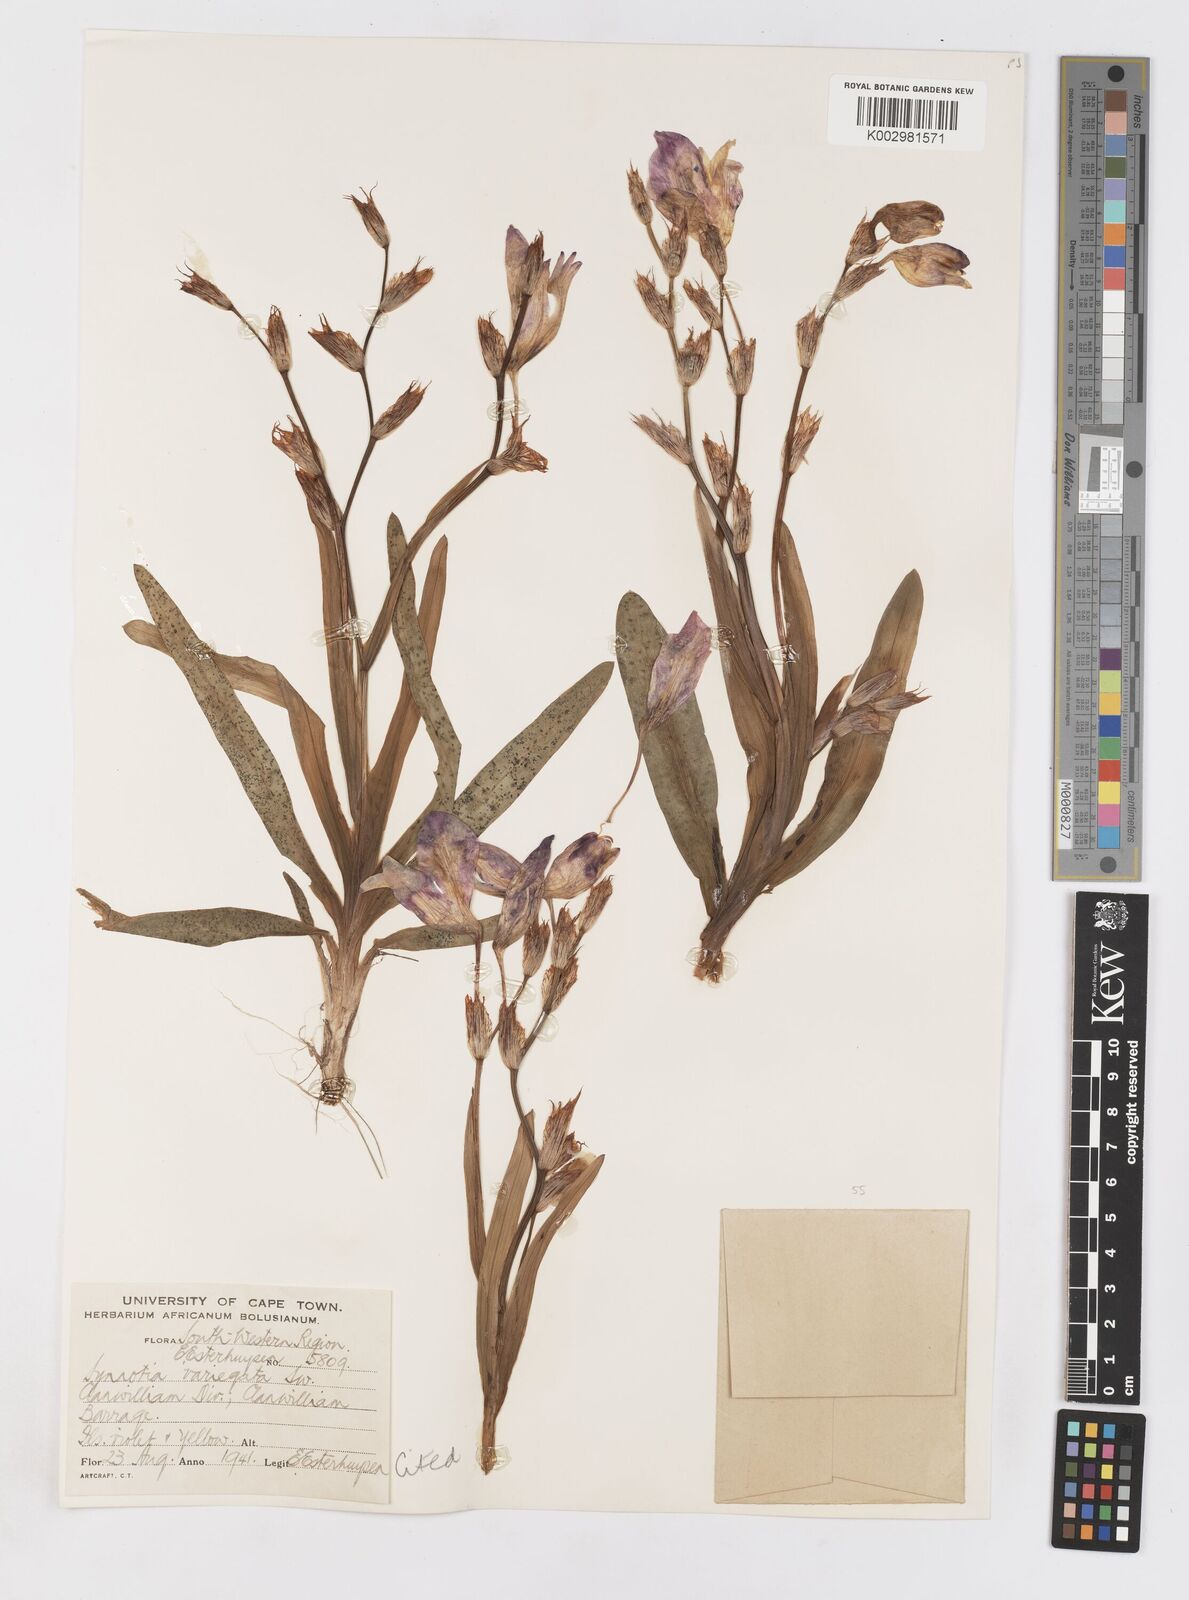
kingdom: Plantae
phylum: Tracheophyta
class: Liliopsida
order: Asparagales
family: Iridaceae
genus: Sparaxis
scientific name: Sparaxis variegata
